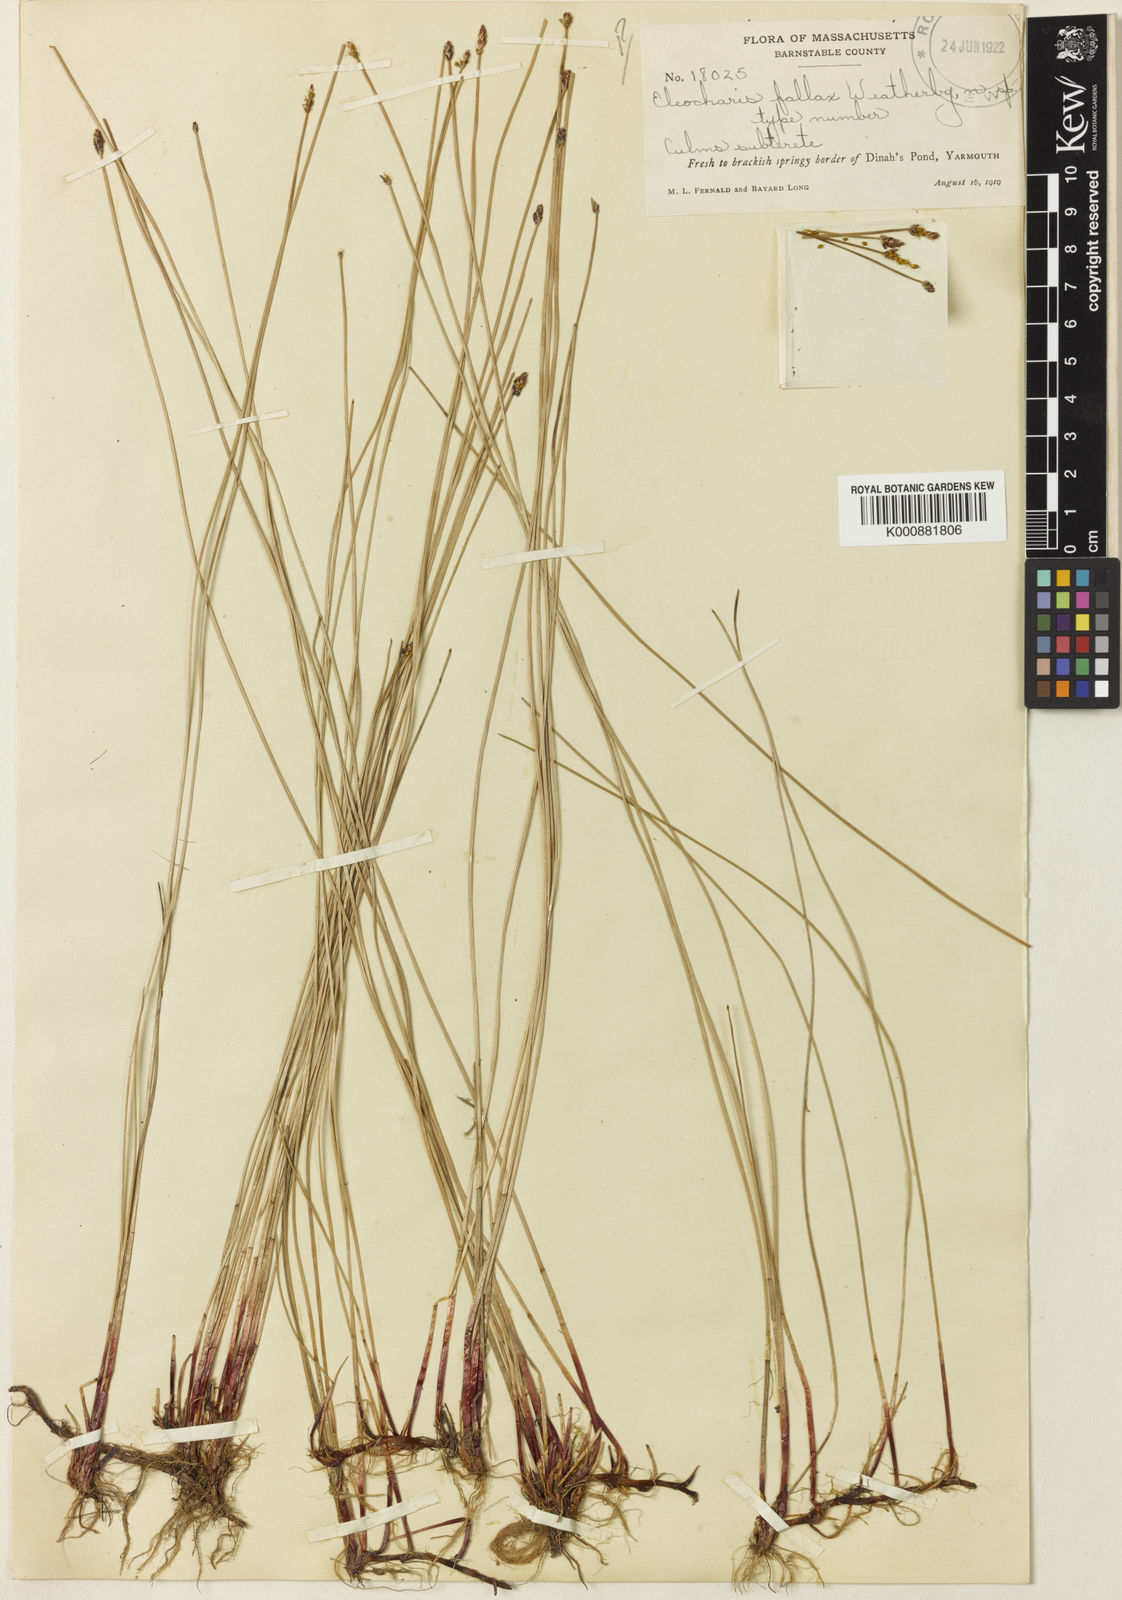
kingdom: Plantae
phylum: Tracheophyta
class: Liliopsida
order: Poales
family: Cyperaceae
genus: Eleocharis
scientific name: Eleocharis fallax
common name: Creeping spikerush
